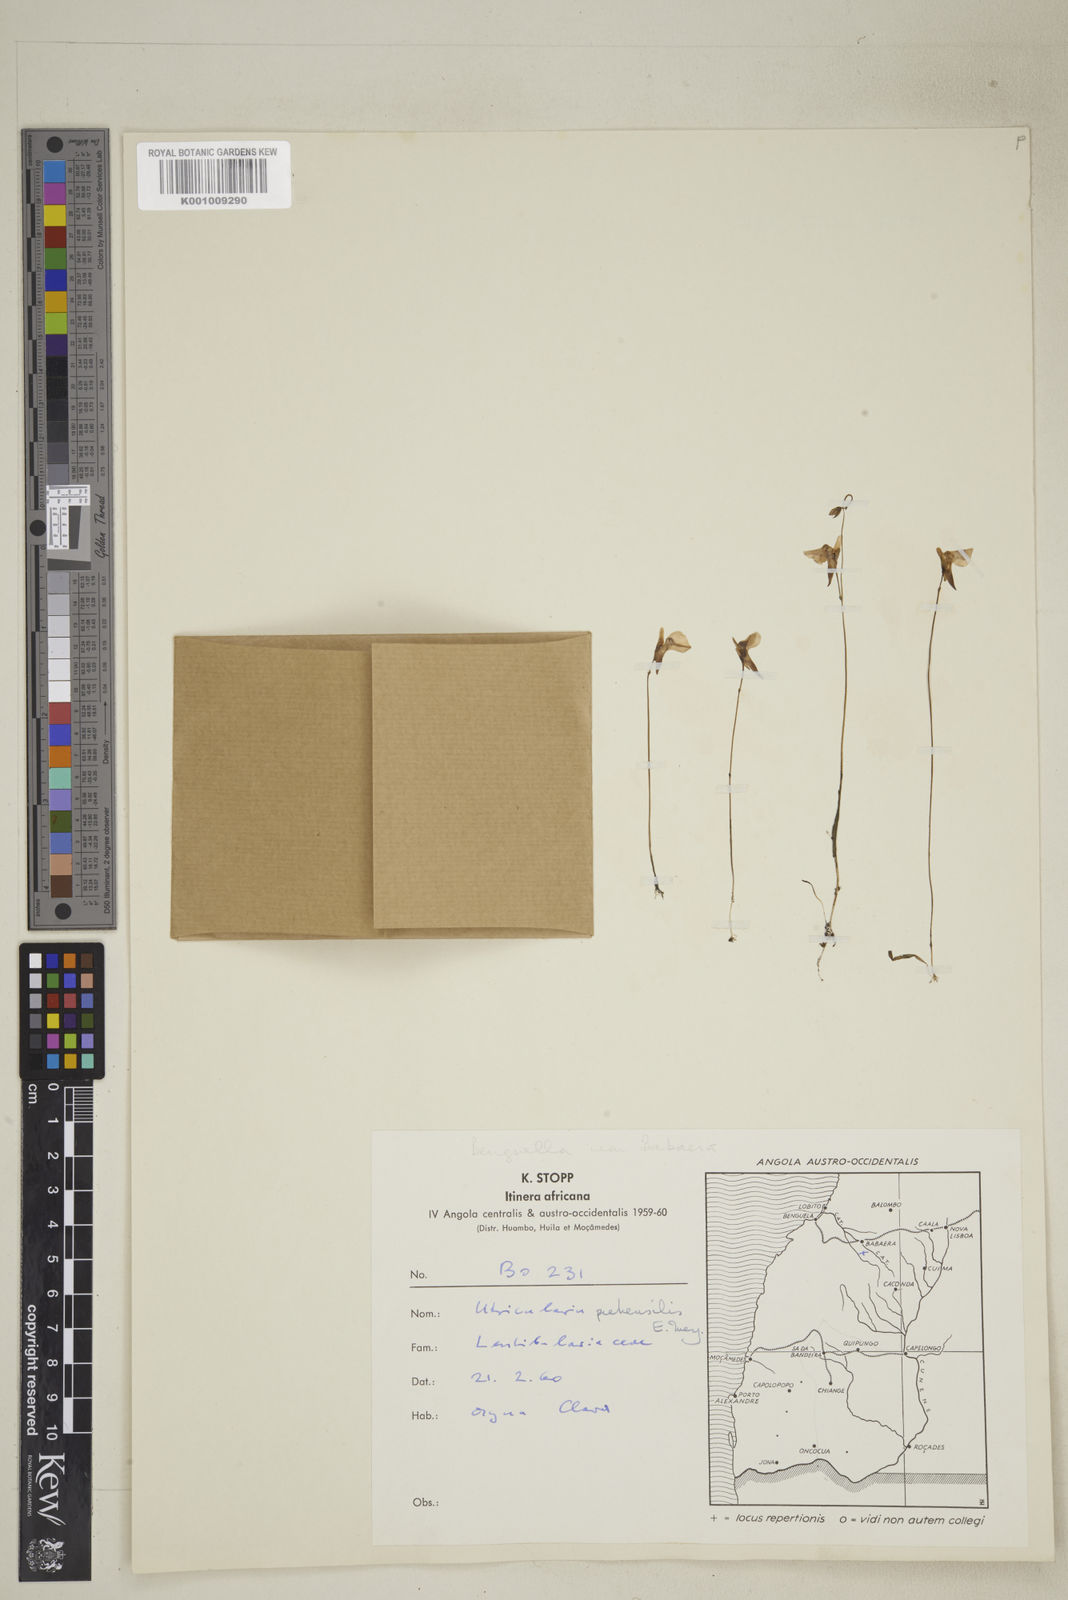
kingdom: Plantae
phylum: Tracheophyta
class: Magnoliopsida
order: Lamiales
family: Lentibulariaceae
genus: Utricularia
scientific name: Utricularia prehensilis
